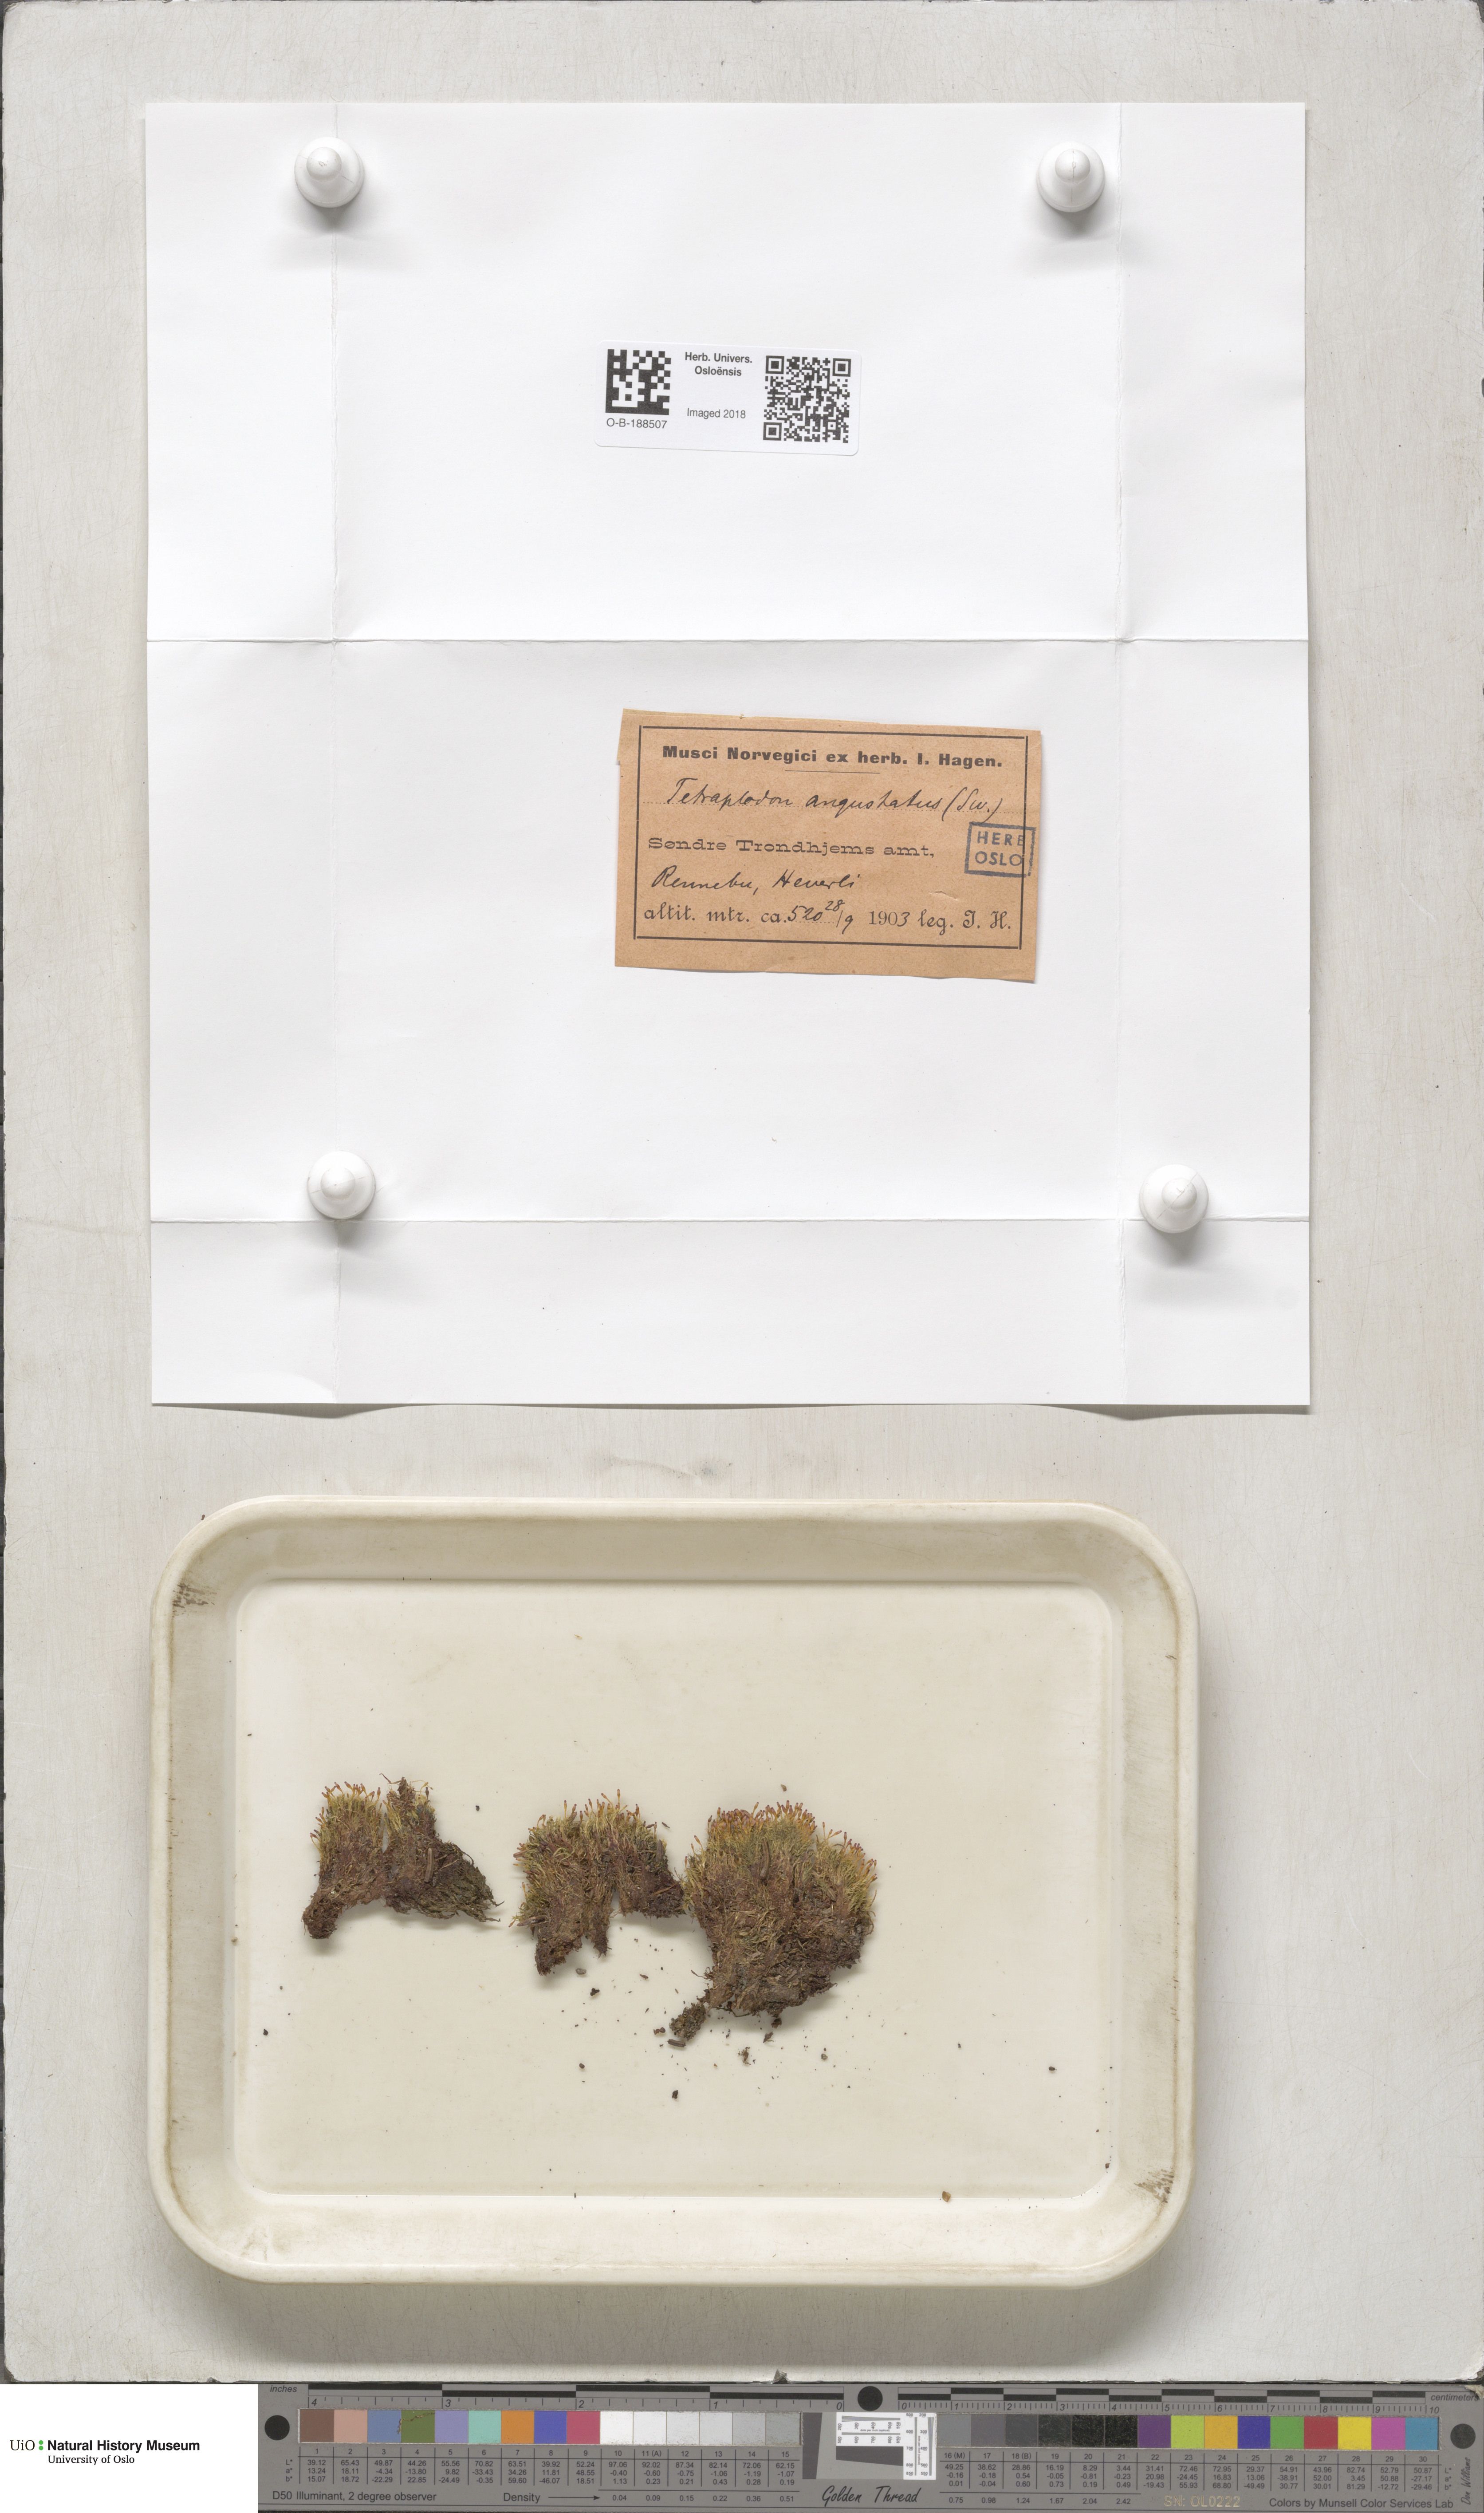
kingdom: Plantae
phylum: Bryophyta
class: Bryopsida
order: Splachnales
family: Splachnaceae
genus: Tetraplodon
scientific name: Tetraplodon angustatus
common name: Narrow cruet-moss
